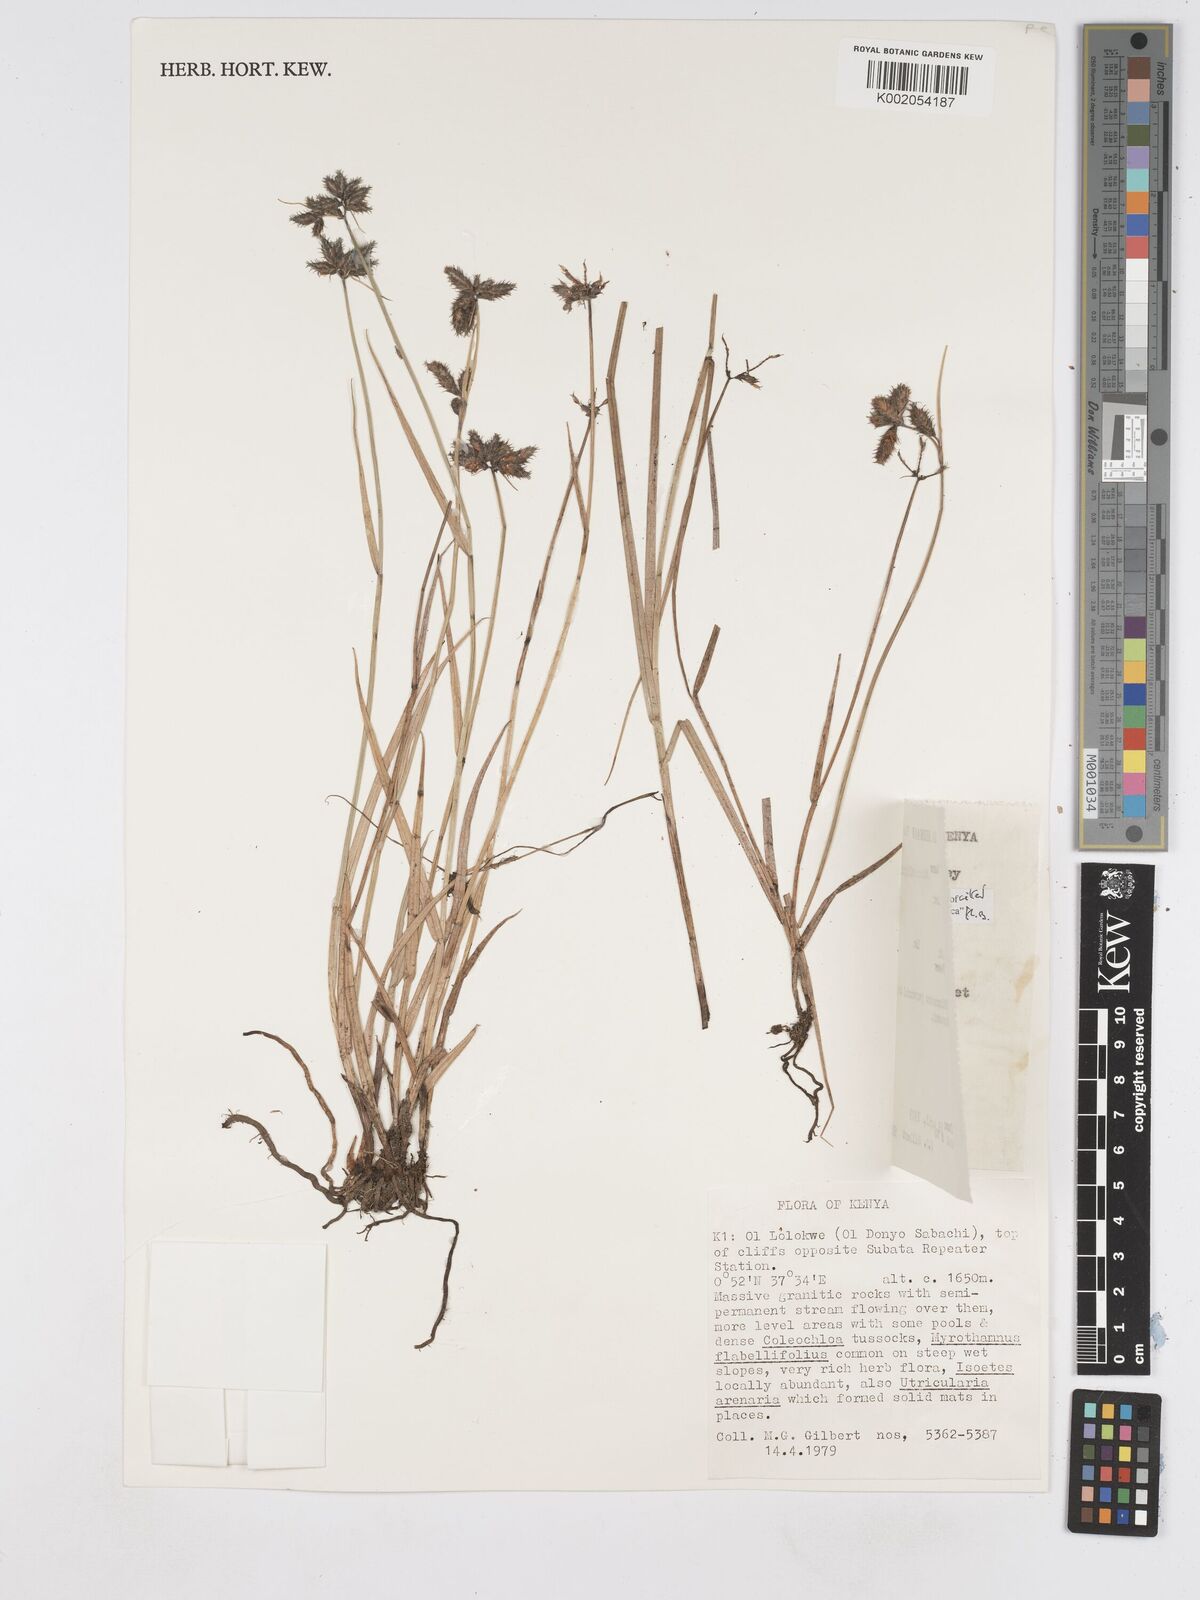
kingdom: Plantae
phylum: Tracheophyta
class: Liliopsida
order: Poales
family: Cyperaceae
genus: Fuirena
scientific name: Fuirena welwitschii
